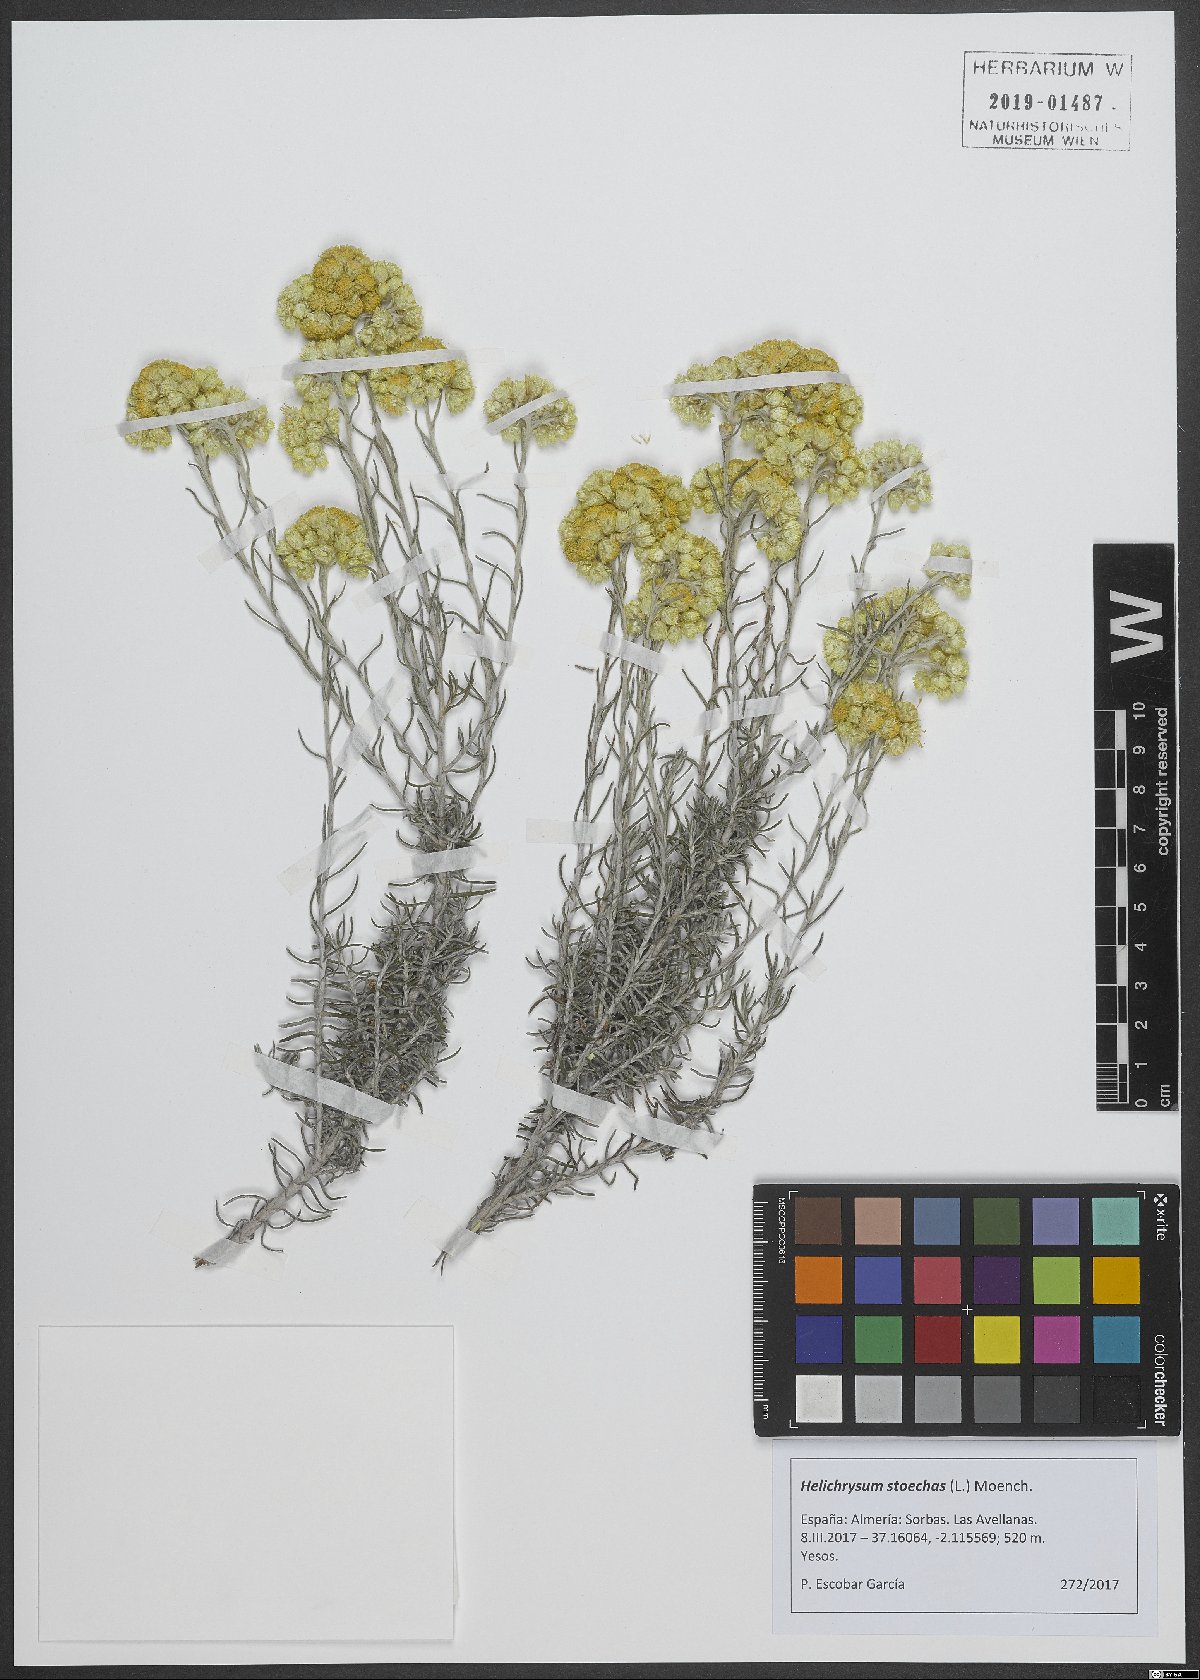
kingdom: Plantae
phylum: Tracheophyta
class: Magnoliopsida
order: Asterales
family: Asteraceae
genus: Helichrysum
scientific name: Helichrysum stoechas
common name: Goldilocks
